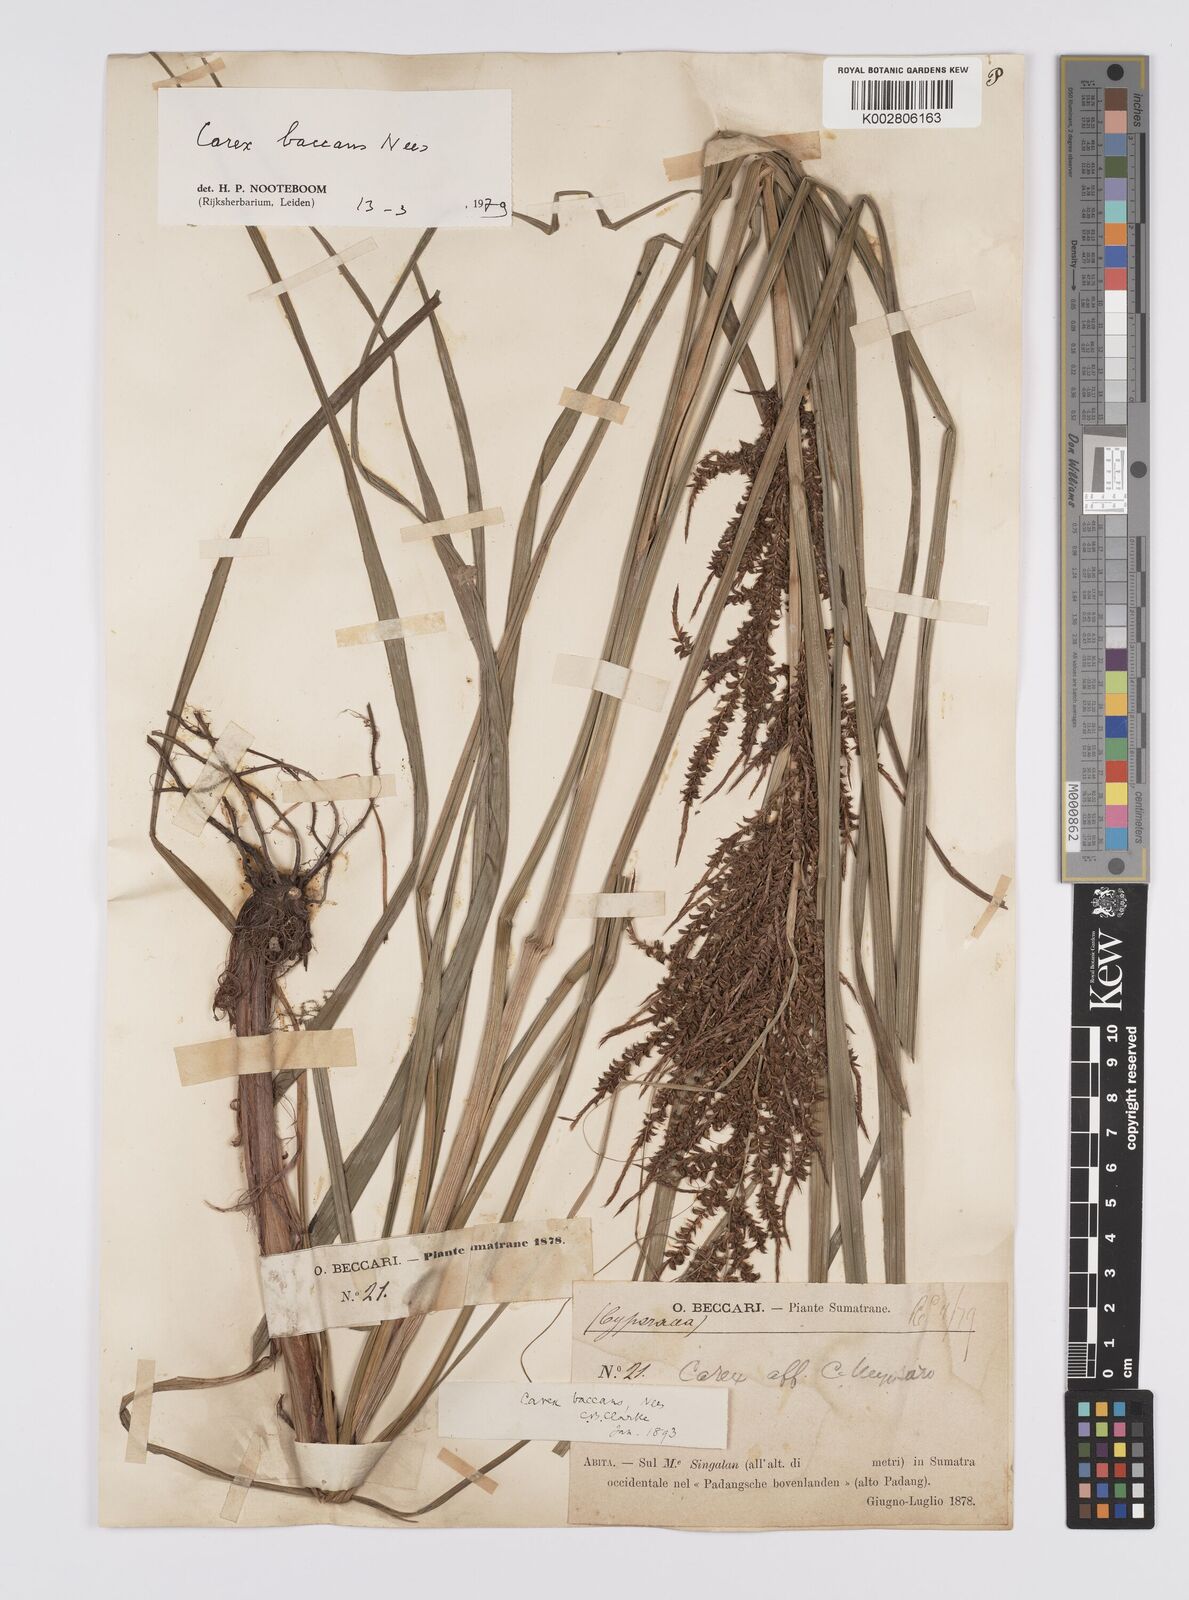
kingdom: Plantae
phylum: Tracheophyta
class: Liliopsida
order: Poales
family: Cyperaceae
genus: Carex
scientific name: Carex baccans
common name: Crimson seeded sedge
